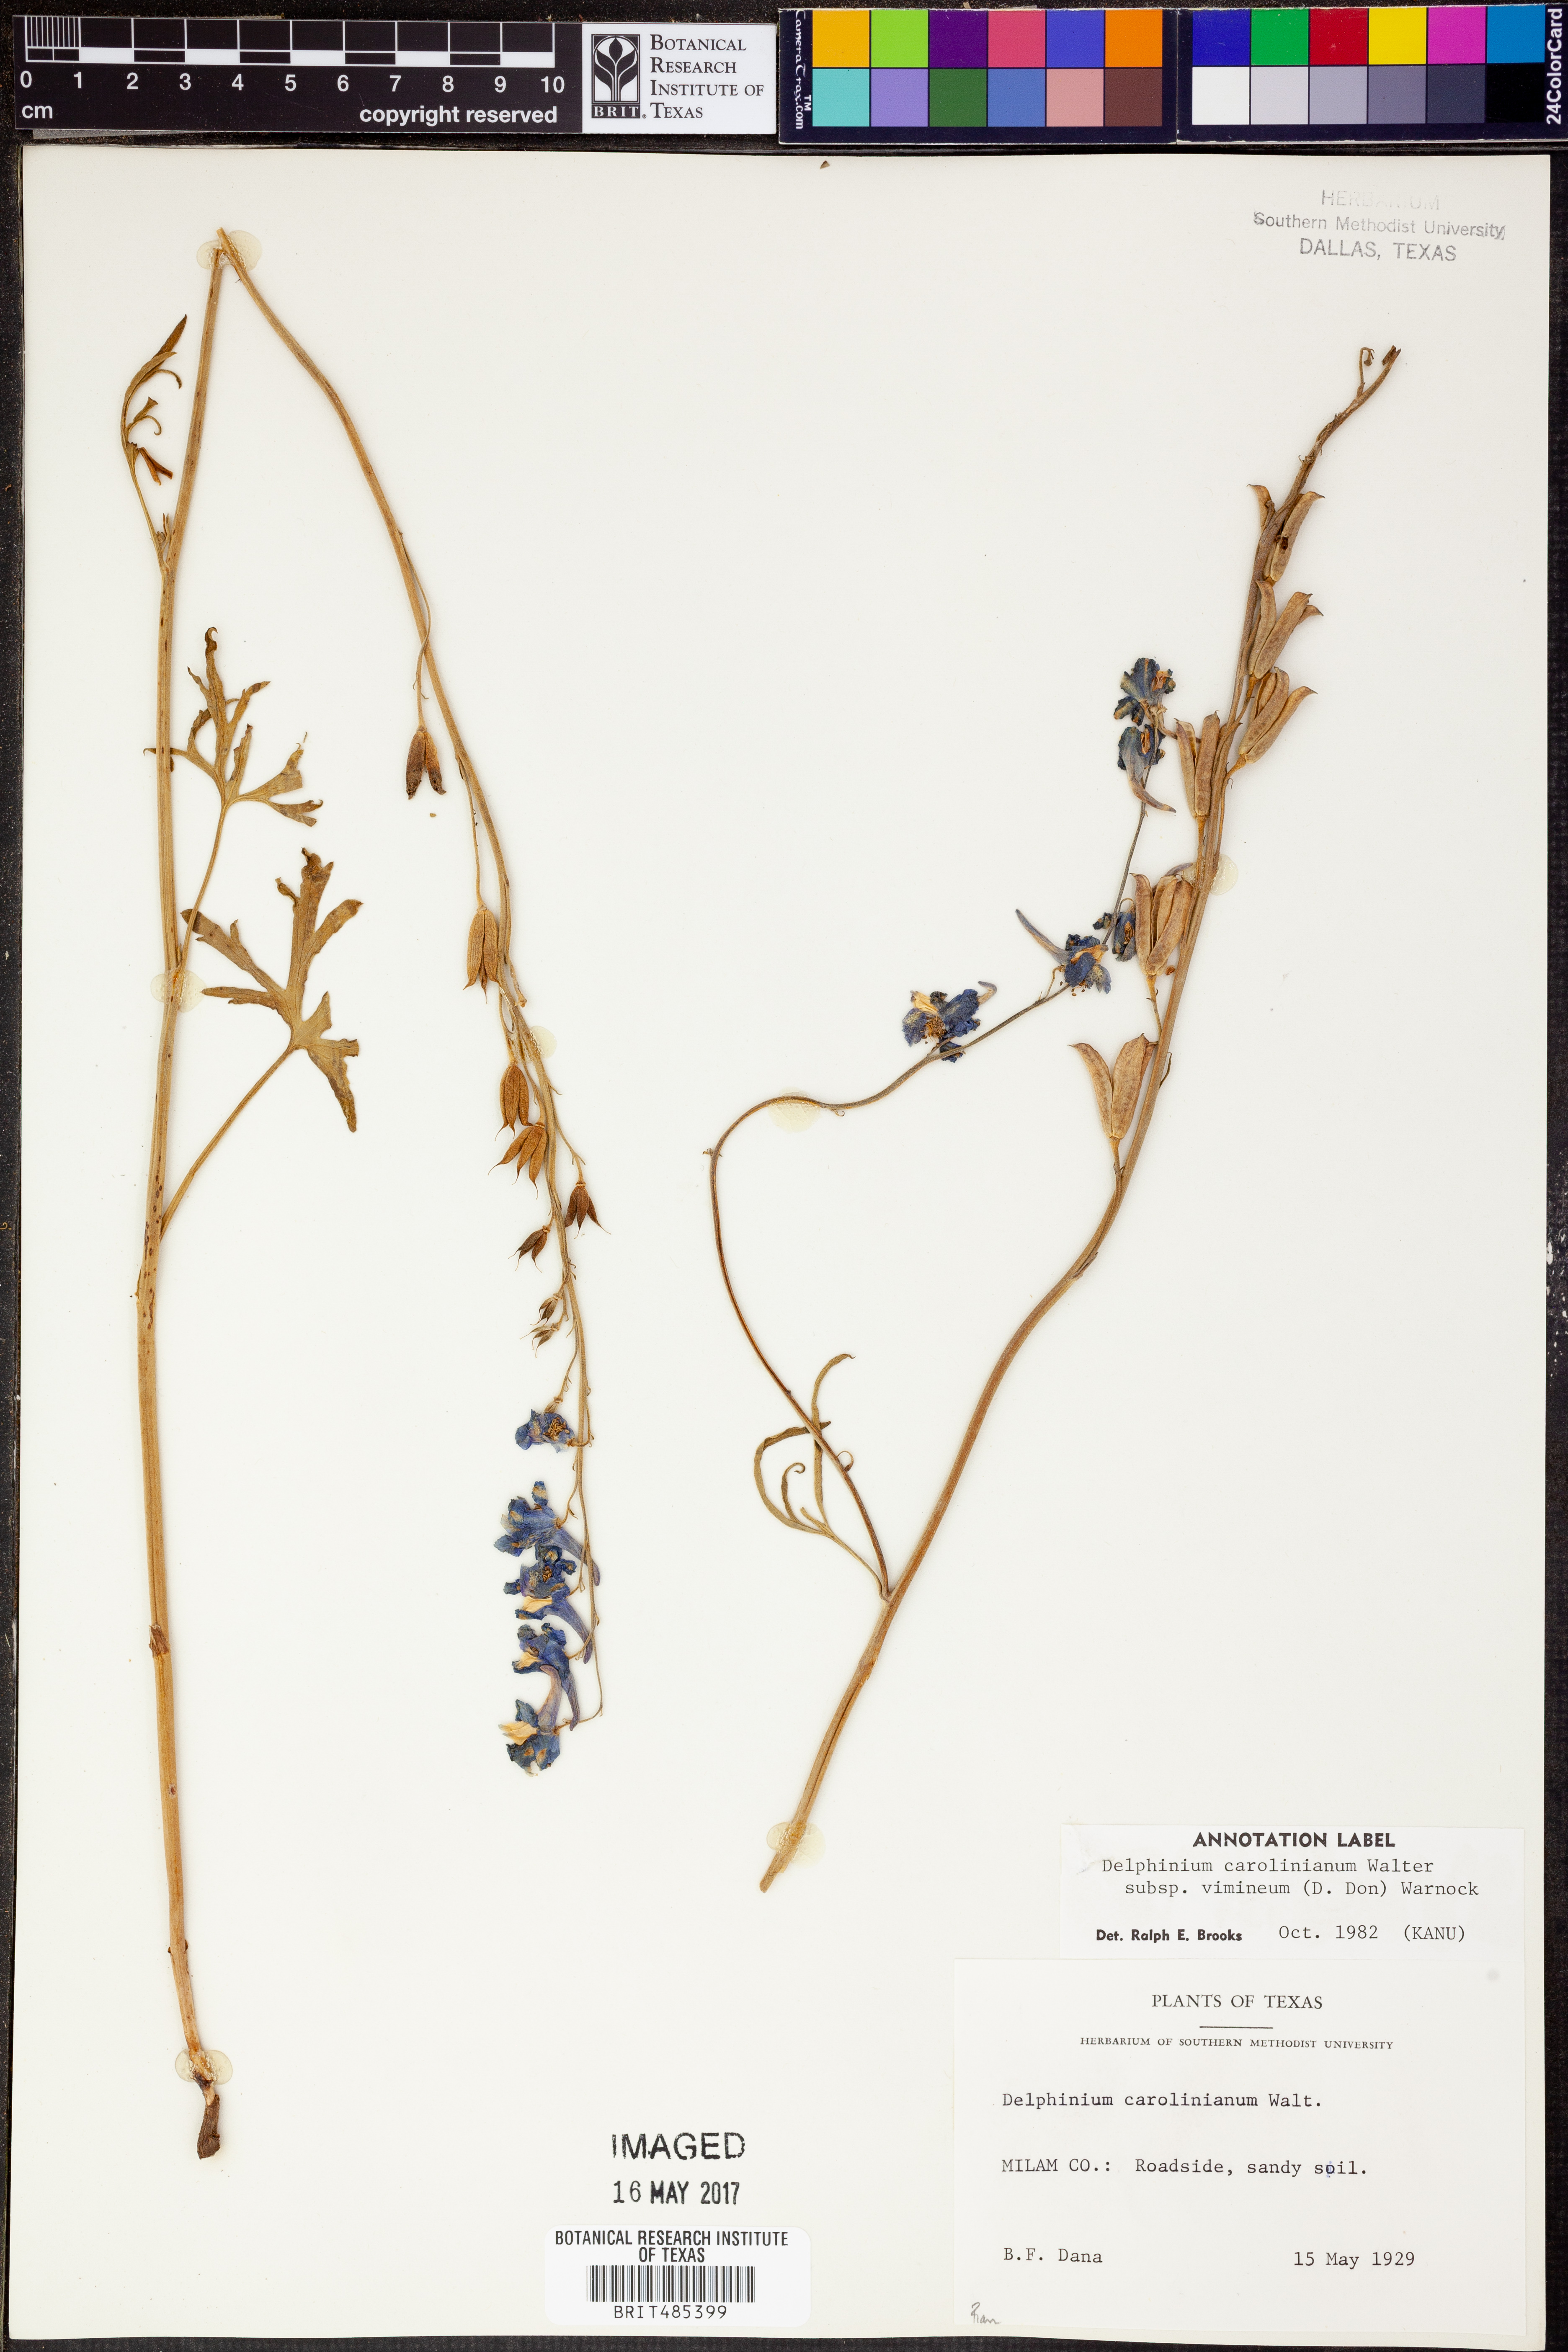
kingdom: Plantae
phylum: Tracheophyta
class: Magnoliopsida
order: Ranunculales
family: Ranunculaceae
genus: Delphinium
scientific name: Delphinium carolinianum
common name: Carolina larkspur
